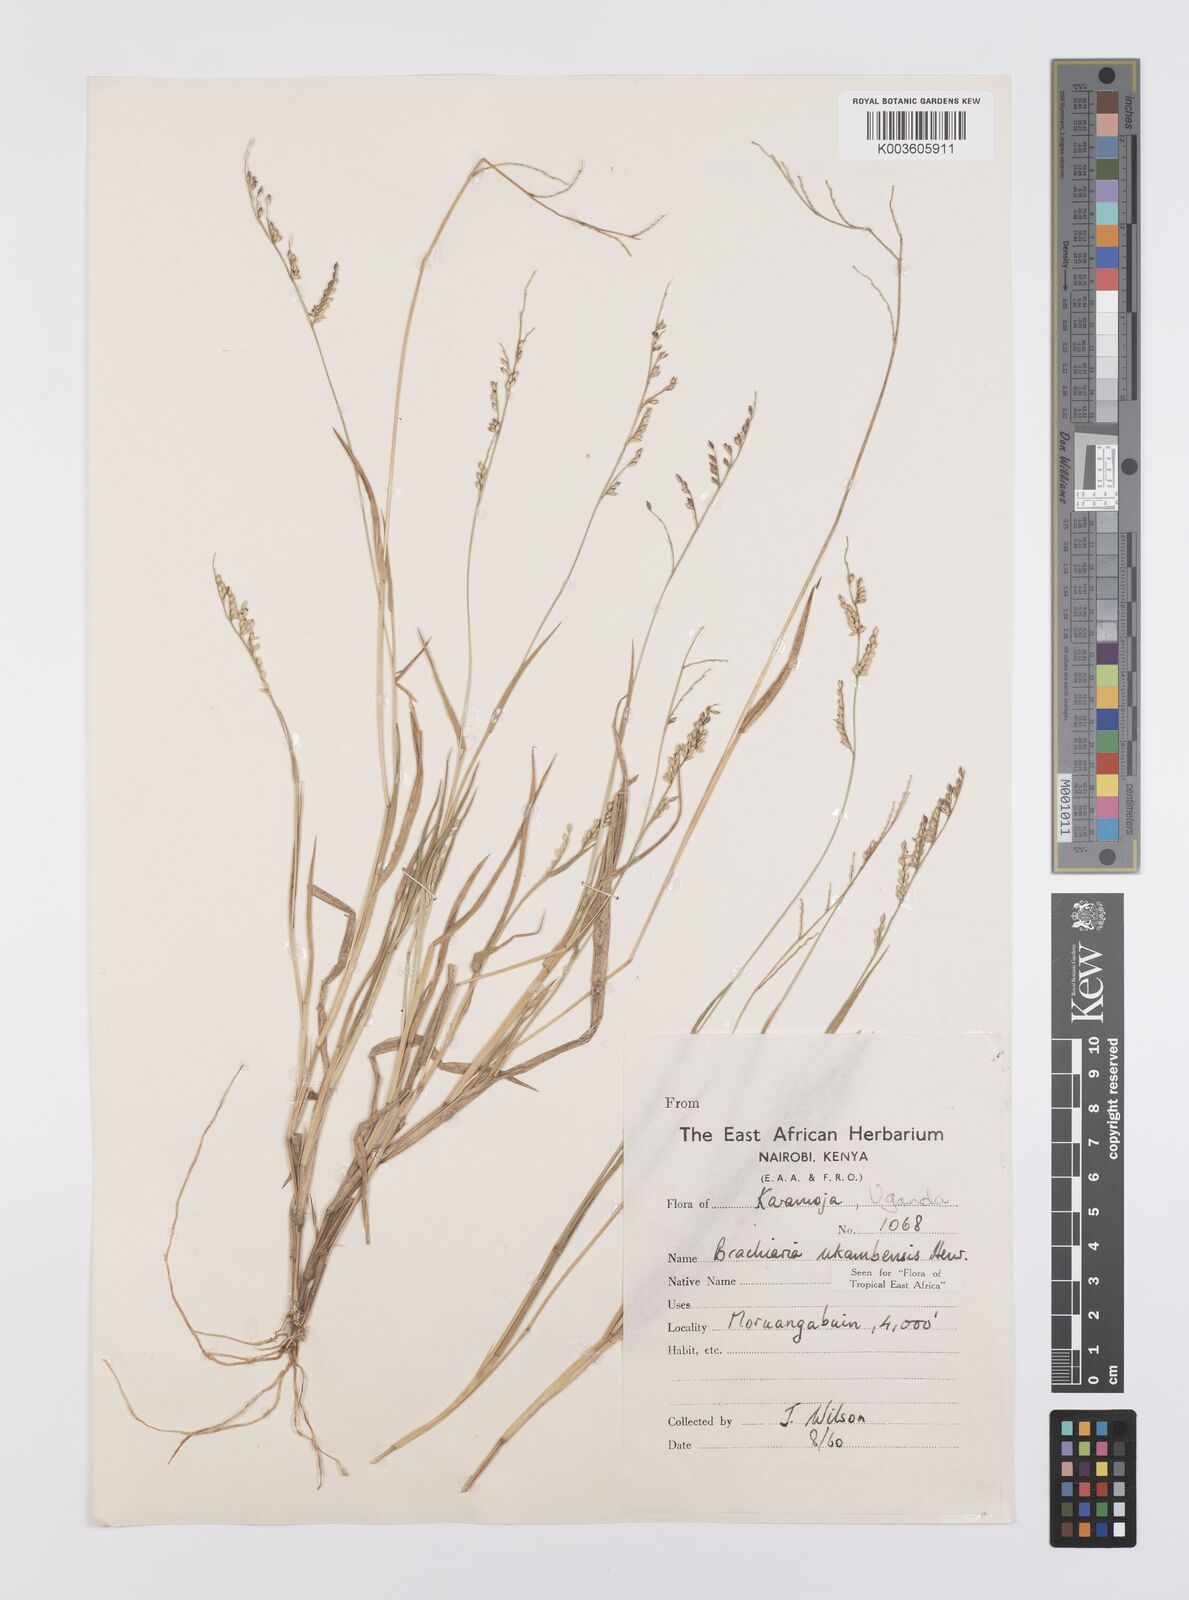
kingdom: Plantae
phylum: Tracheophyta
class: Liliopsida
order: Poales
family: Poaceae
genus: Urochloa
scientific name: Urochloa xantholeuca
